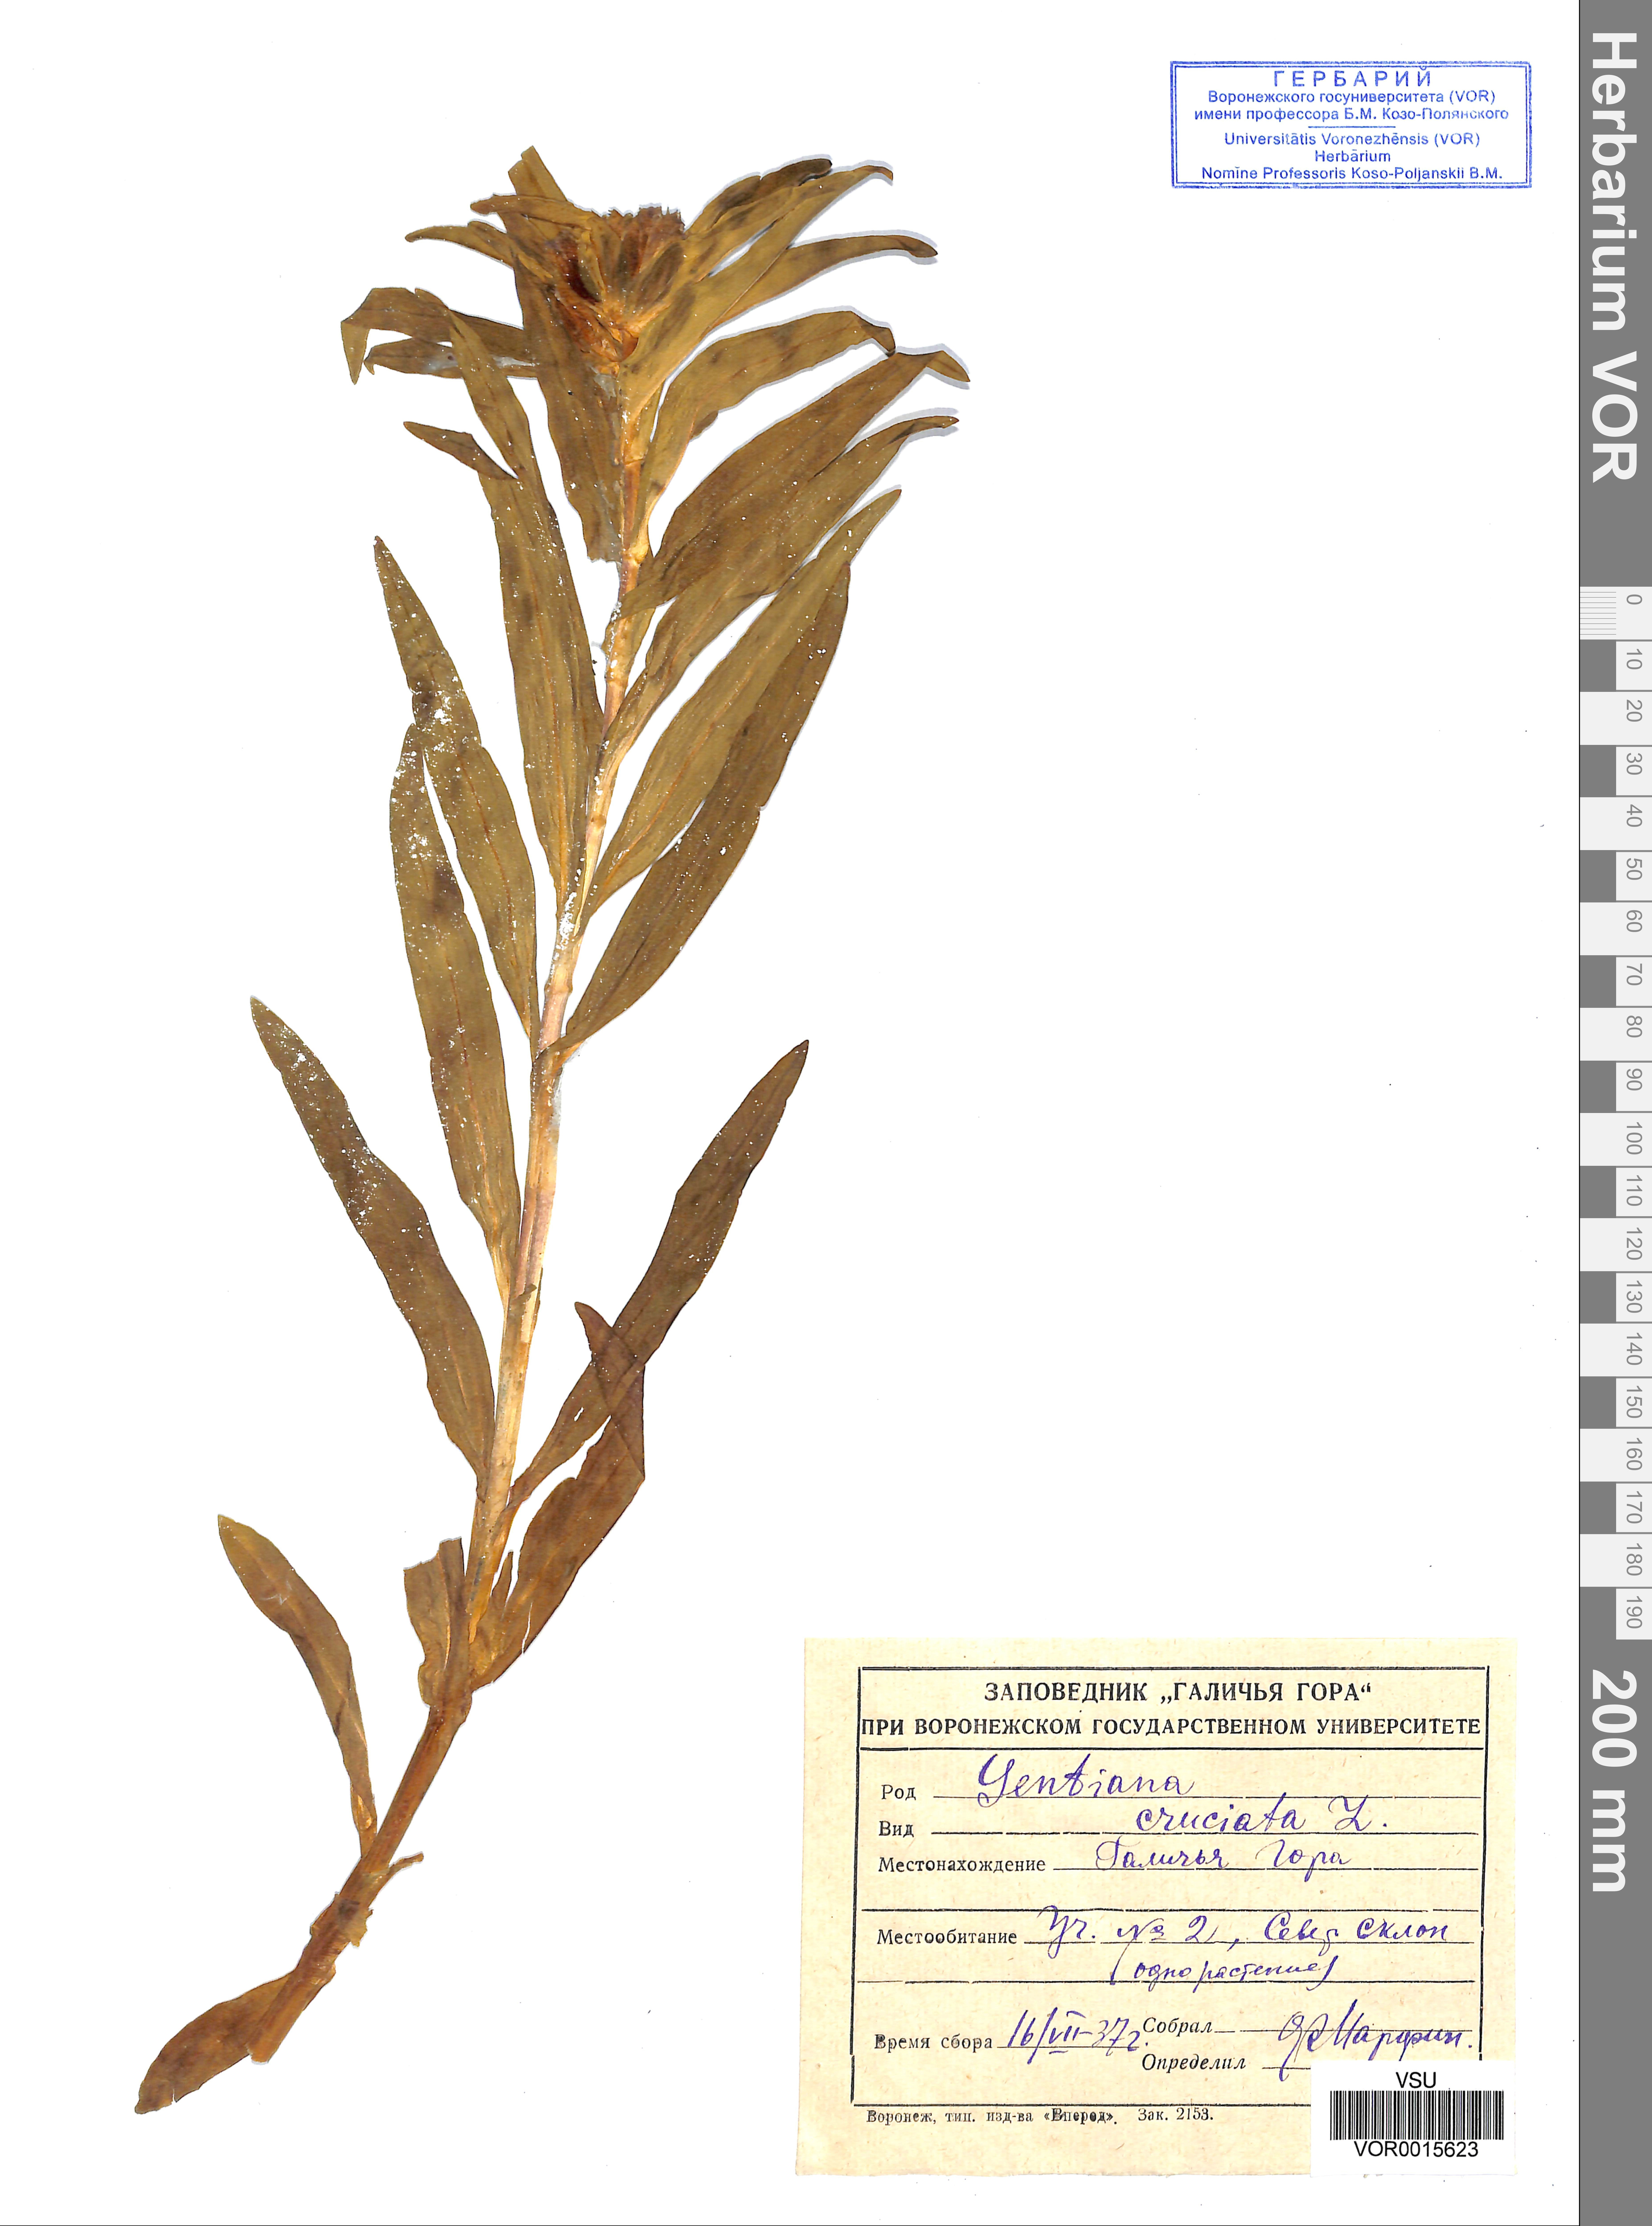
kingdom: Plantae
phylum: Tracheophyta
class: Magnoliopsida
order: Gentianales
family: Gentianaceae
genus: Gentiana
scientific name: Gentiana cruciata
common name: Cross gentian
